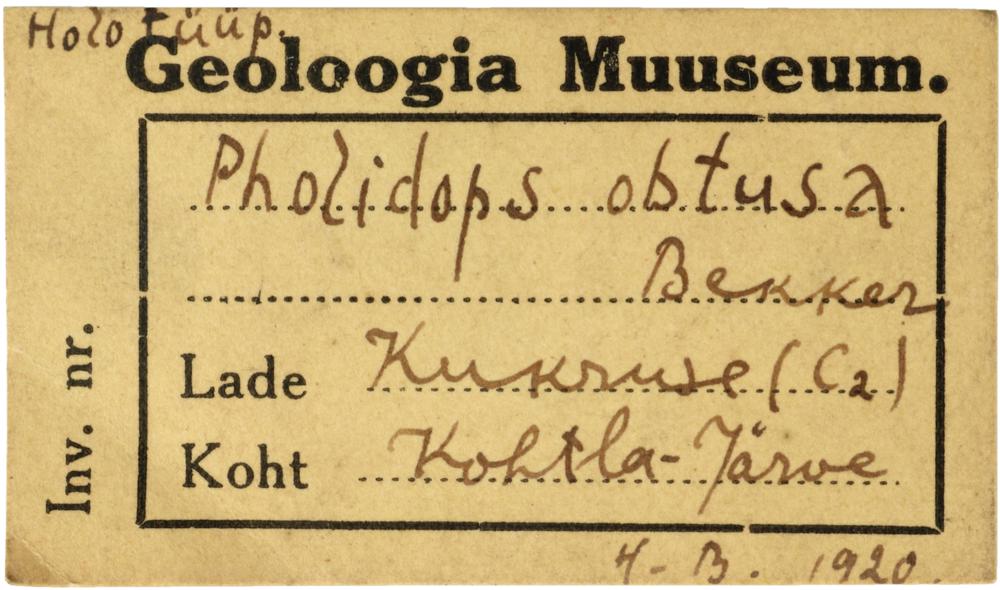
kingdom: Animalia
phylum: Brachiopoda
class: Craniata
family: Craniopsidae
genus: Craniops
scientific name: Craniops
